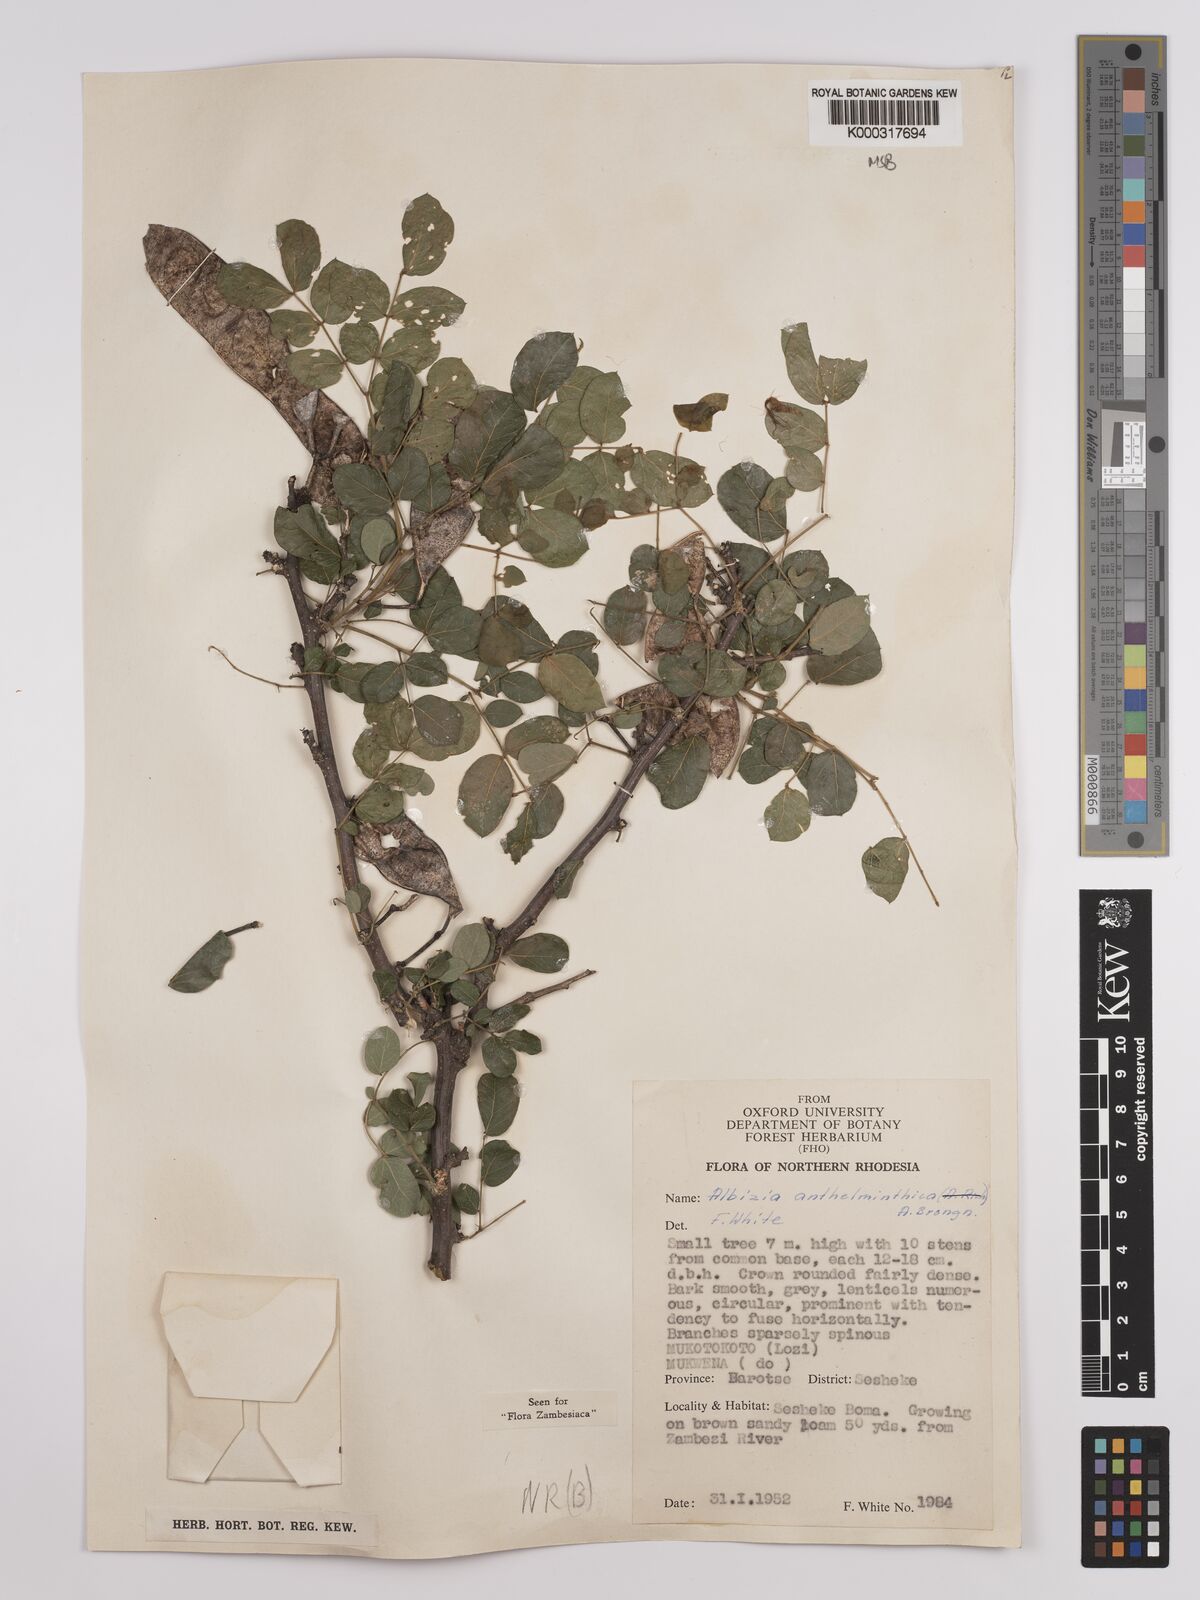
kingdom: Plantae
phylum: Tracheophyta
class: Magnoliopsida
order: Fabales
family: Fabaceae
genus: Albizia
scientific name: Albizia anthelmintica
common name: Worm-bark false-thorn
